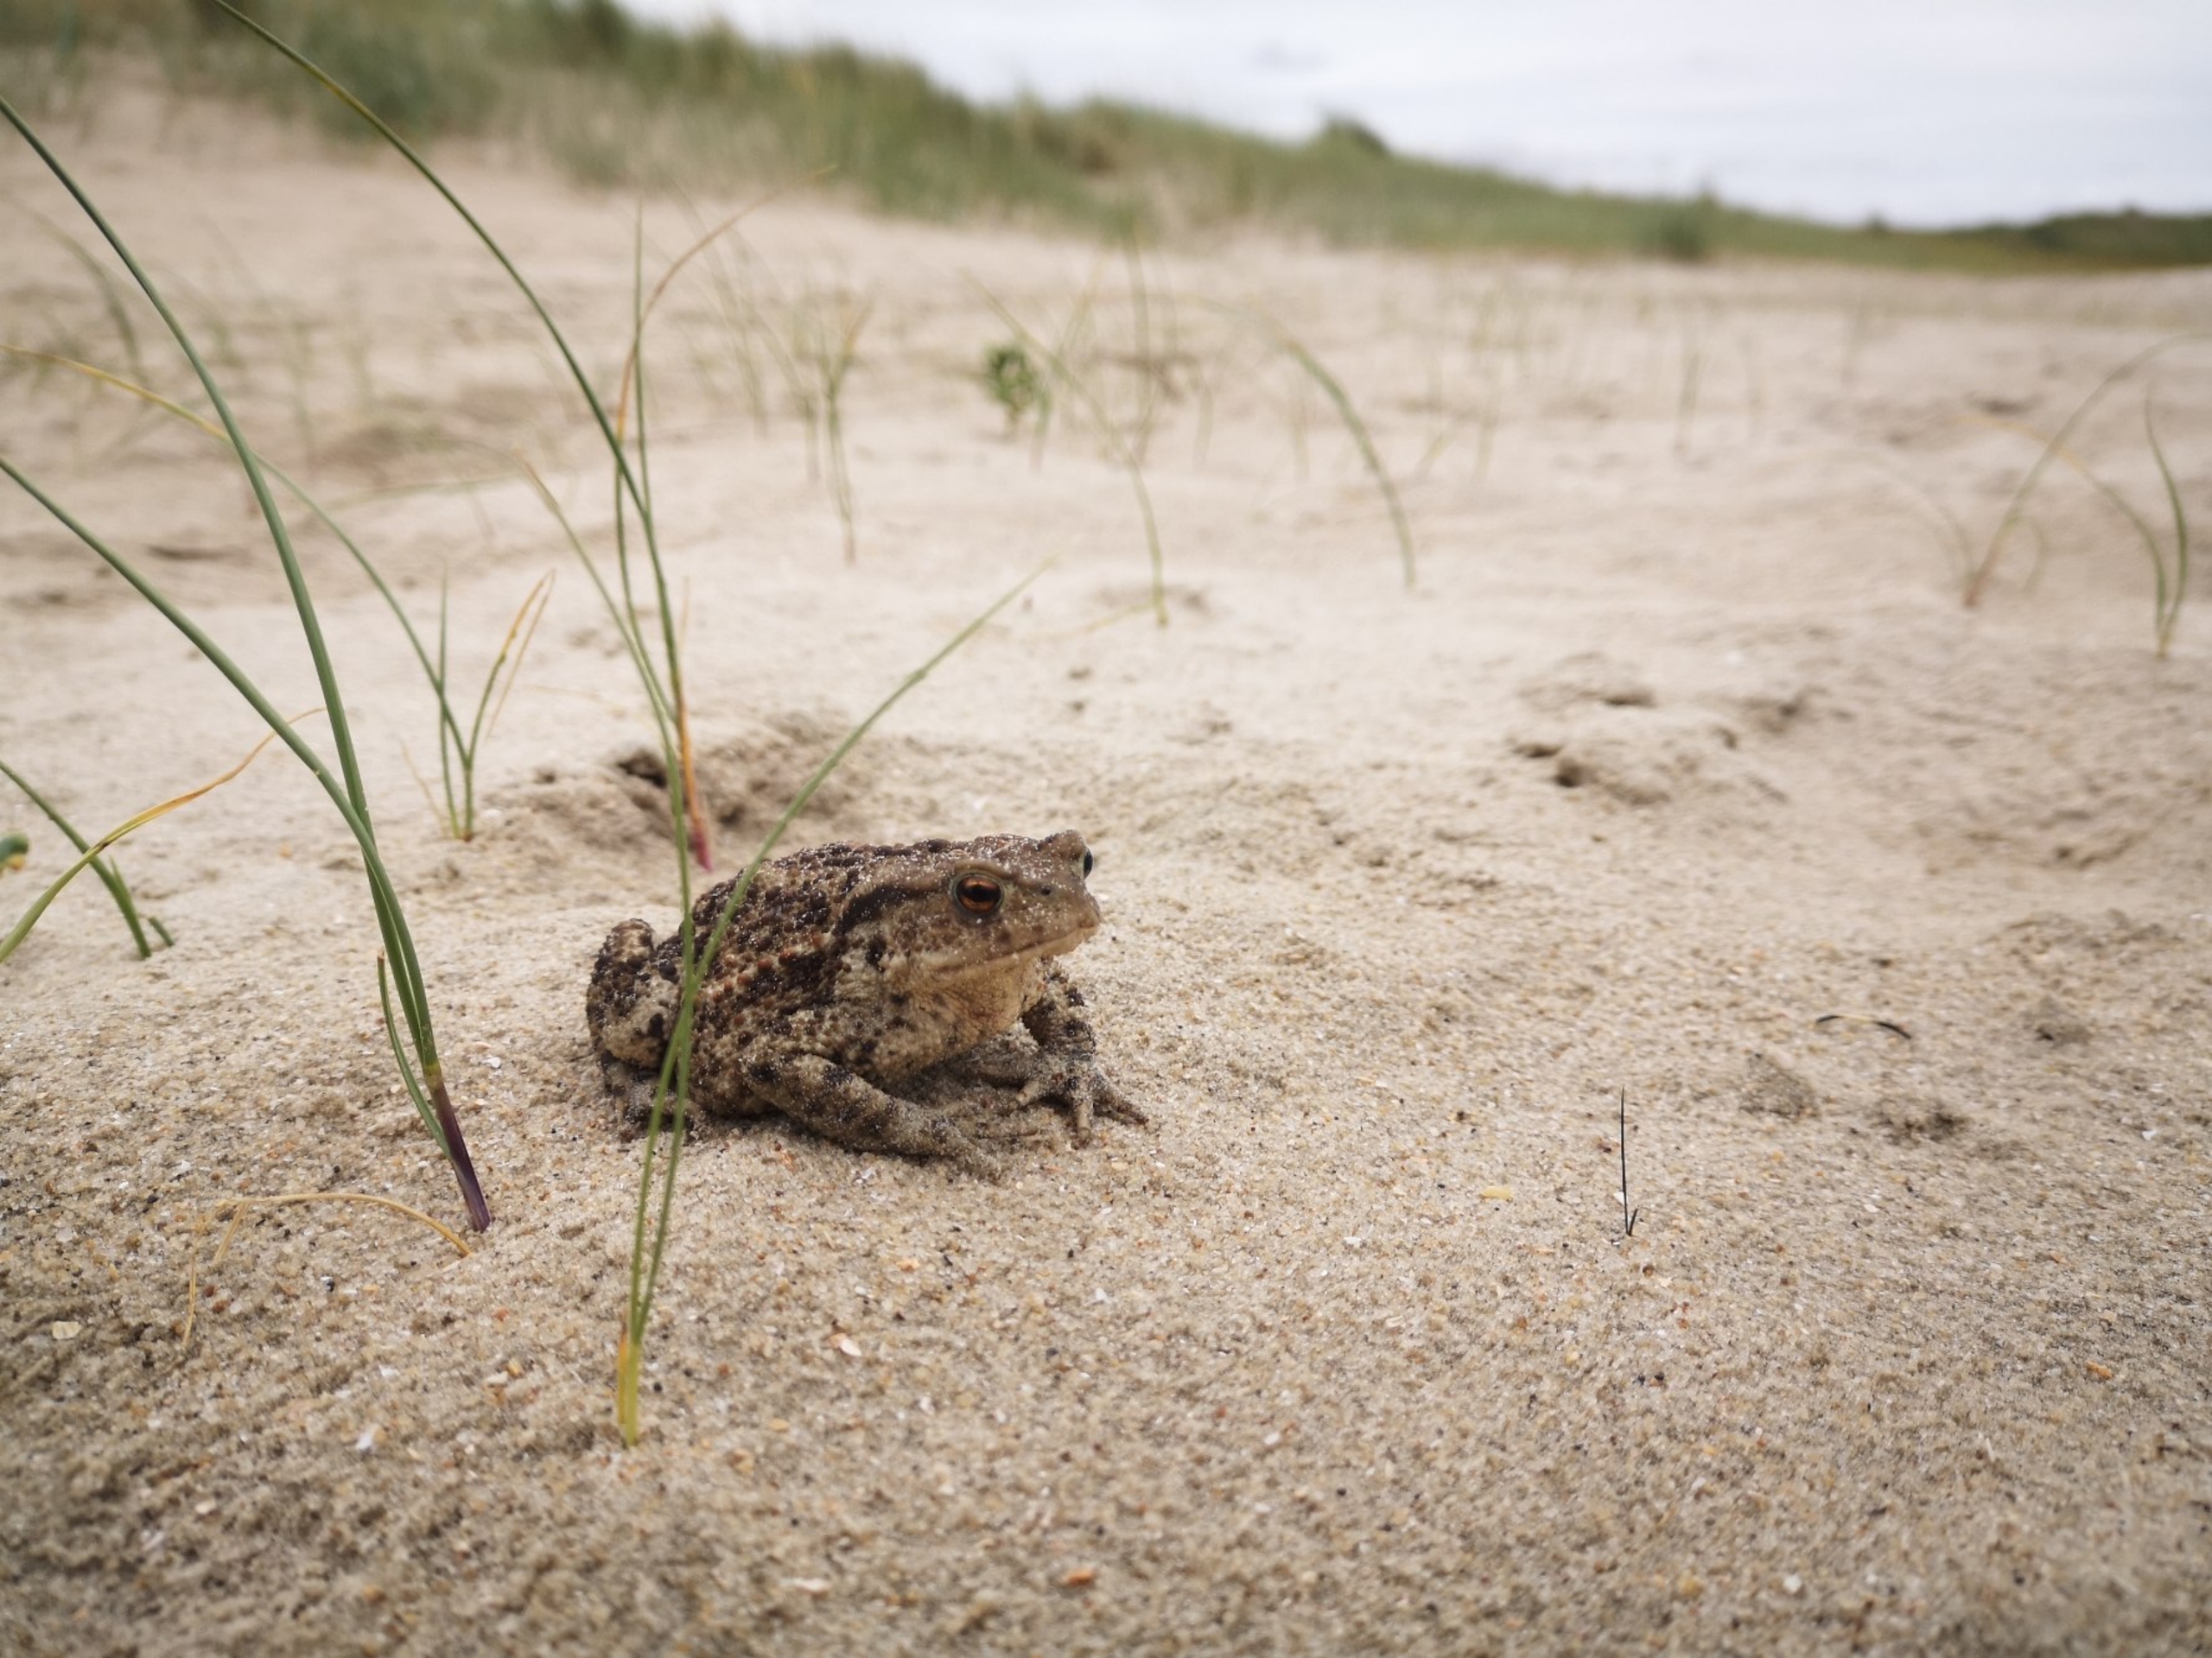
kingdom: Animalia
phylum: Chordata
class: Amphibia
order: Anura
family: Bufonidae
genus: Epidalea
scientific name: Epidalea calamita
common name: Strandtudse
